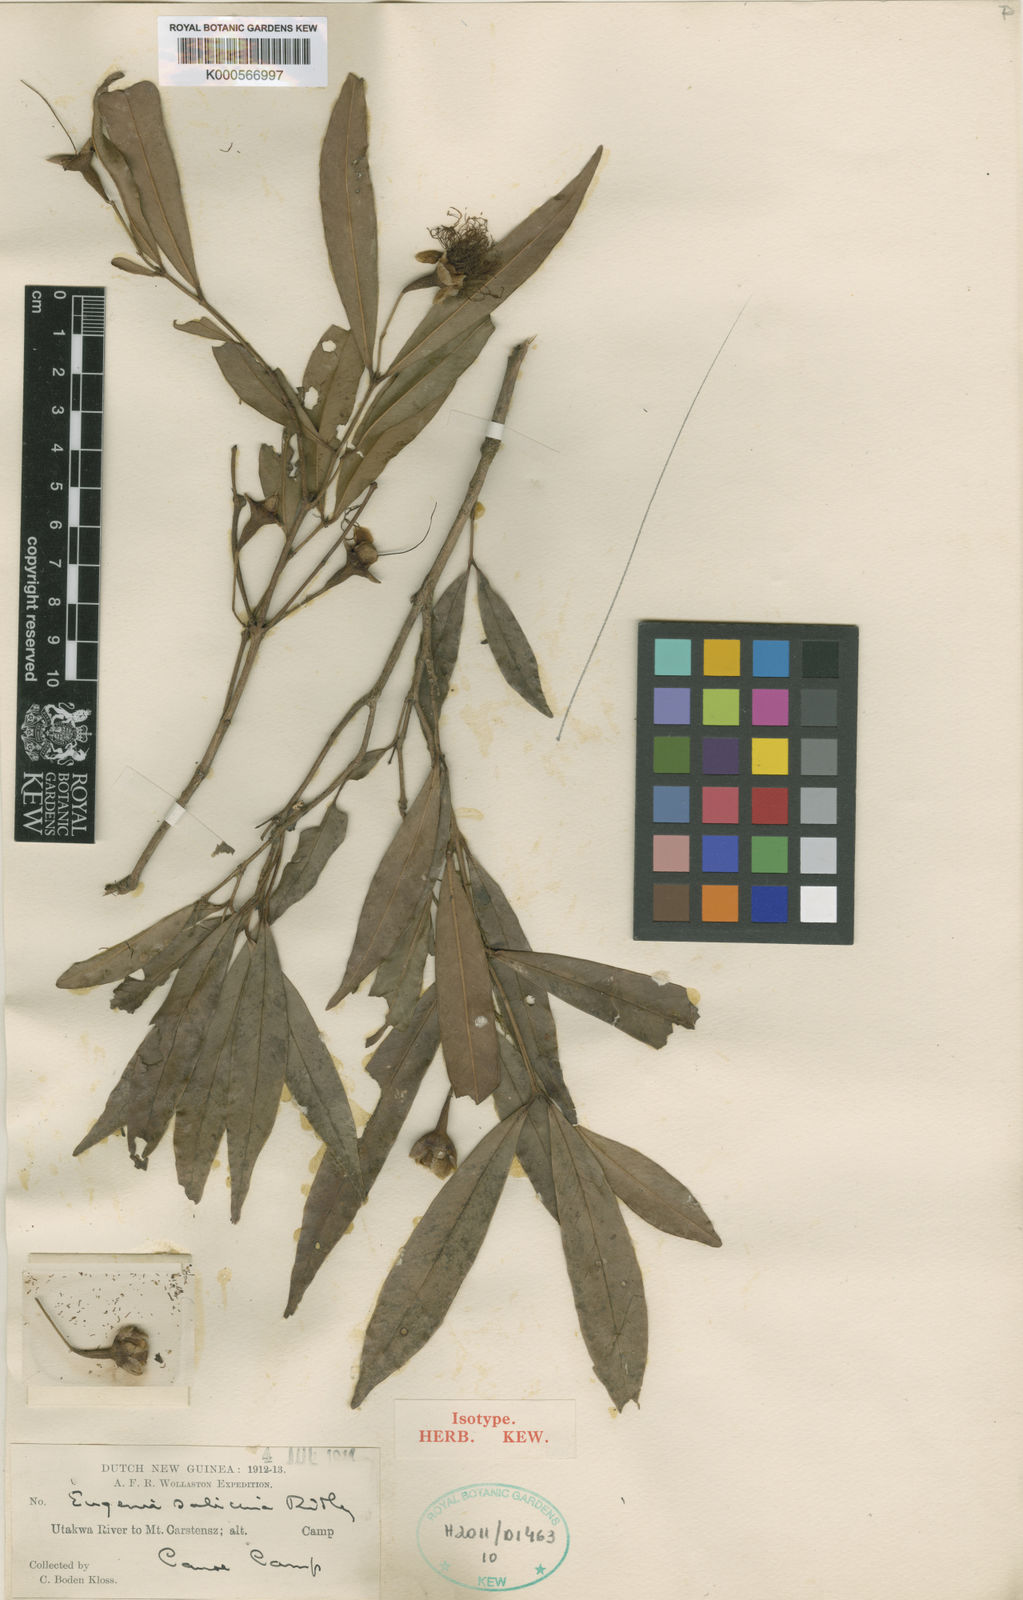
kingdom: Plantae
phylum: Tracheophyta
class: Magnoliopsida
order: Myrtales
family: Myrtaceae
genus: Syzygium
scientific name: Syzygium salicinum
